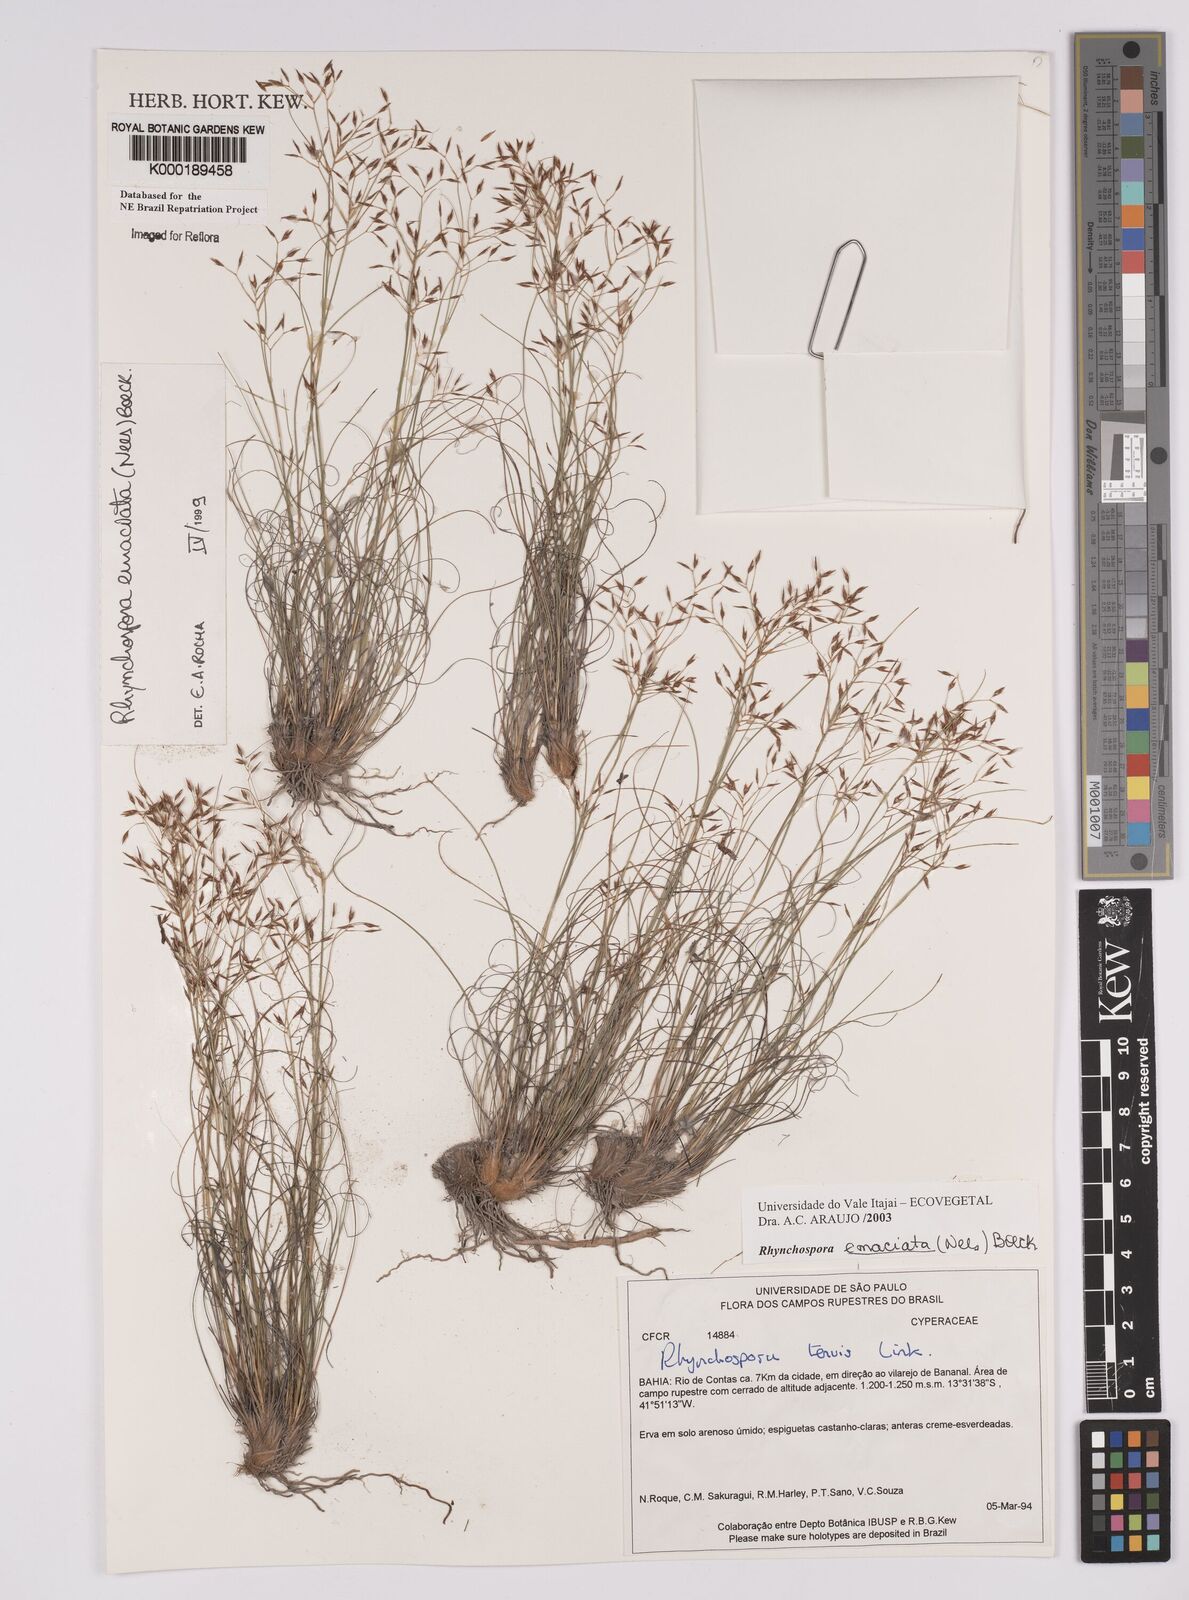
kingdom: Plantae
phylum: Tracheophyta
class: Liliopsida
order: Poales
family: Cyperaceae
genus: Rhynchospora
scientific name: Rhynchospora emaciata
